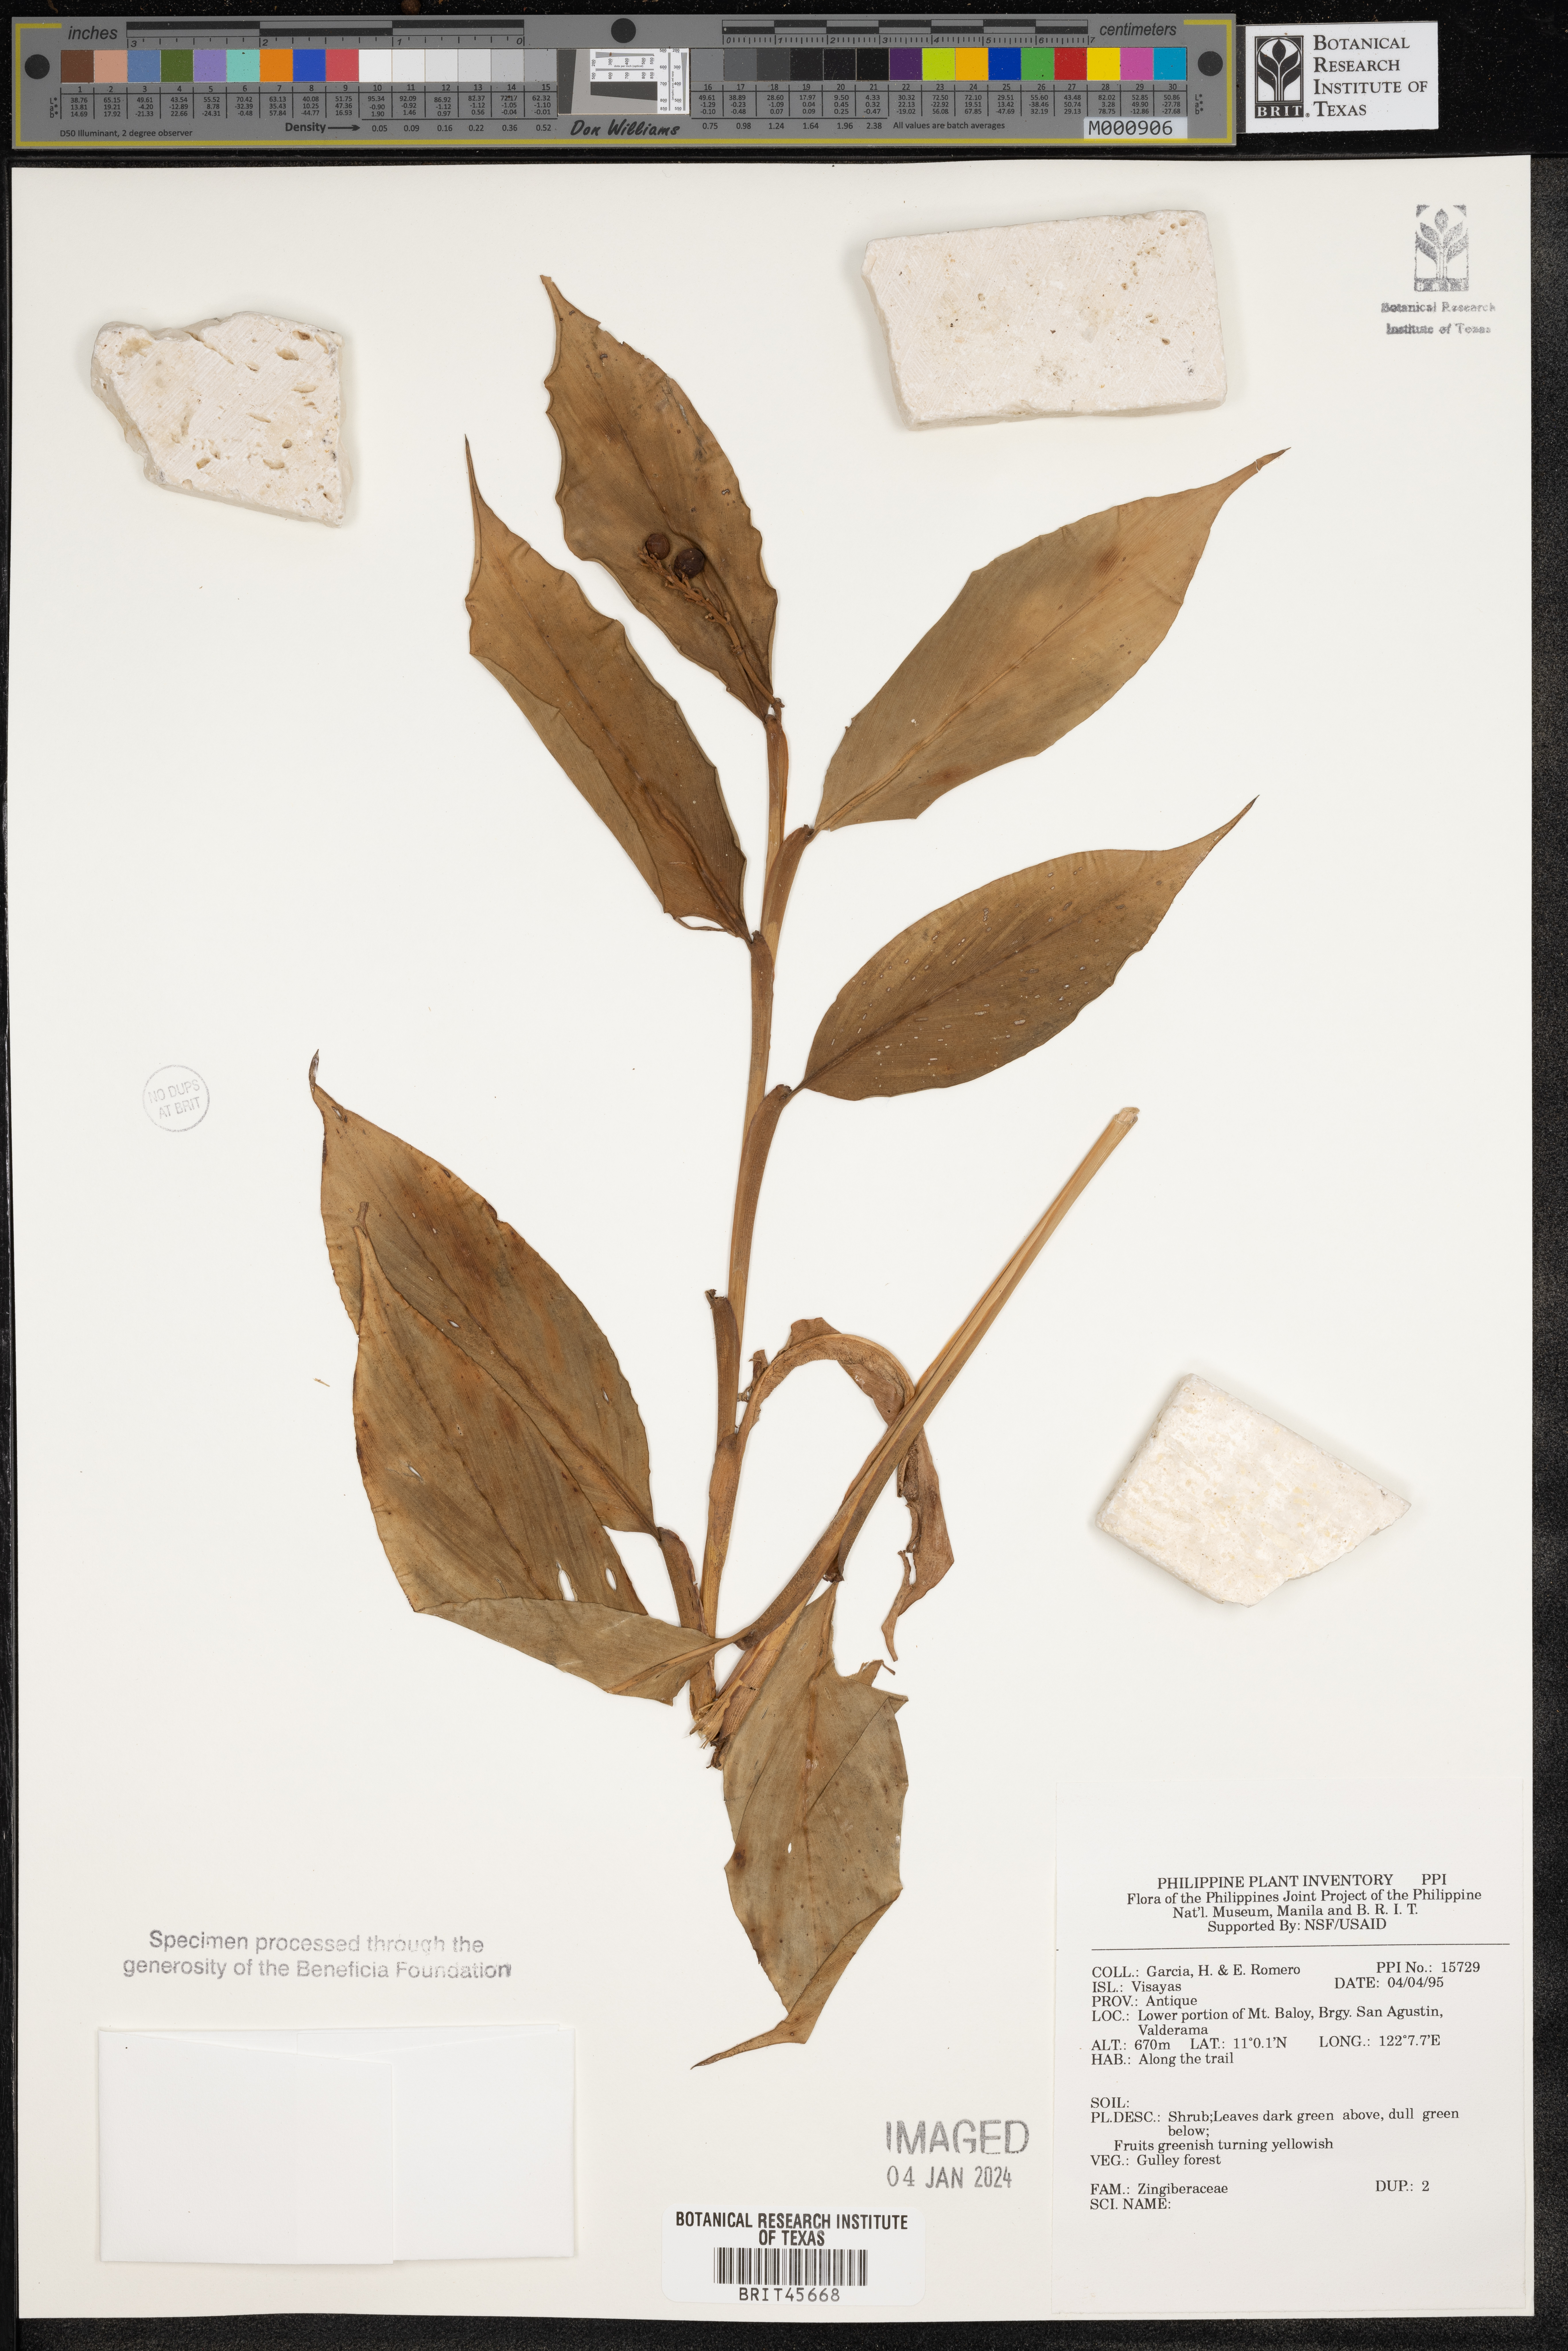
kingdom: Plantae
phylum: Tracheophyta
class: Liliopsida
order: Zingiberales
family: Zingiberaceae
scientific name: Zingiberaceae
